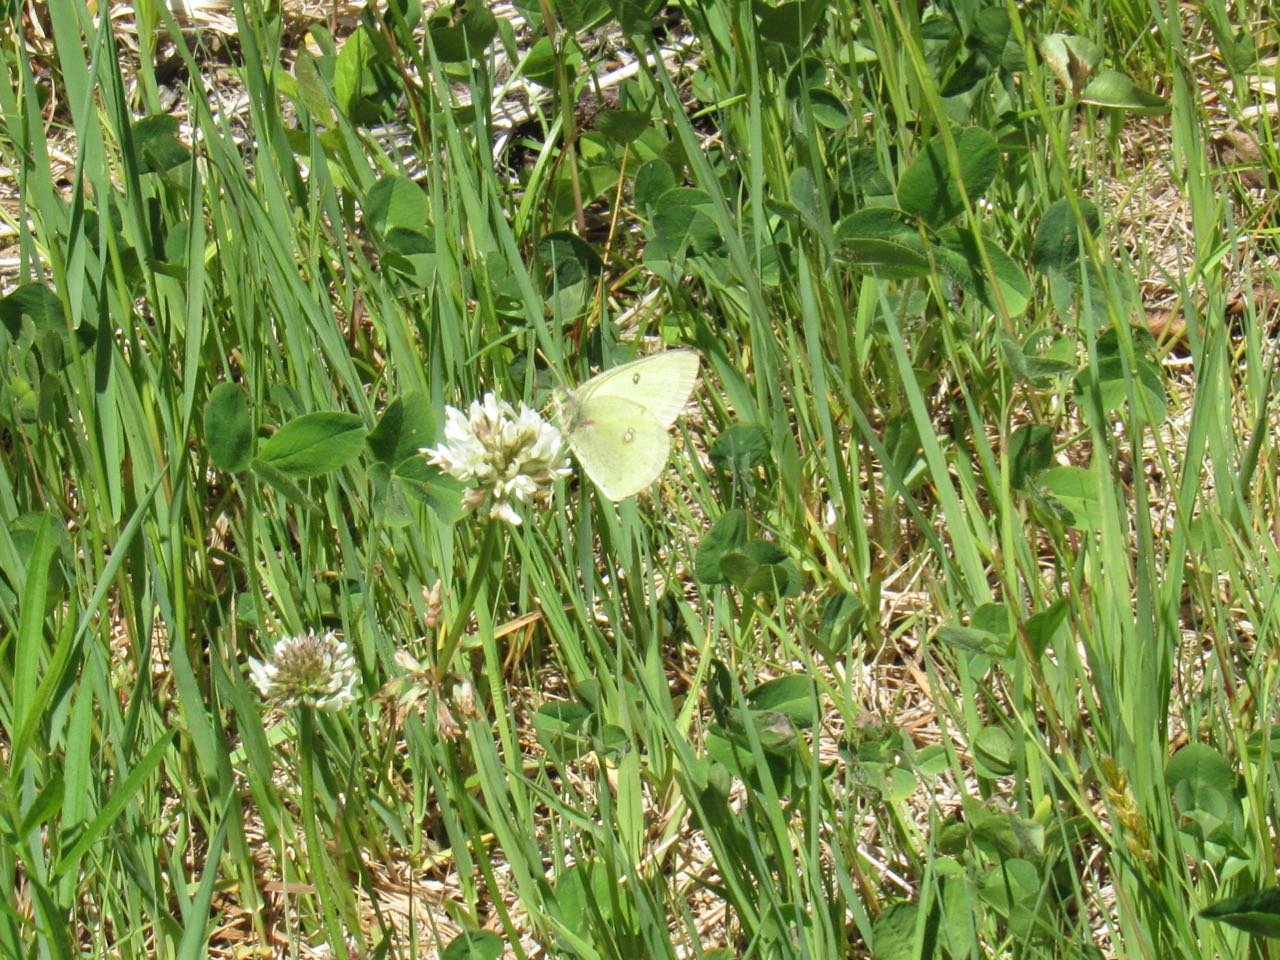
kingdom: Animalia
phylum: Arthropoda
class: Insecta
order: Lepidoptera
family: Pieridae
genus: Colias
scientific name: Colias philodice
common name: Clouded Sulphur
